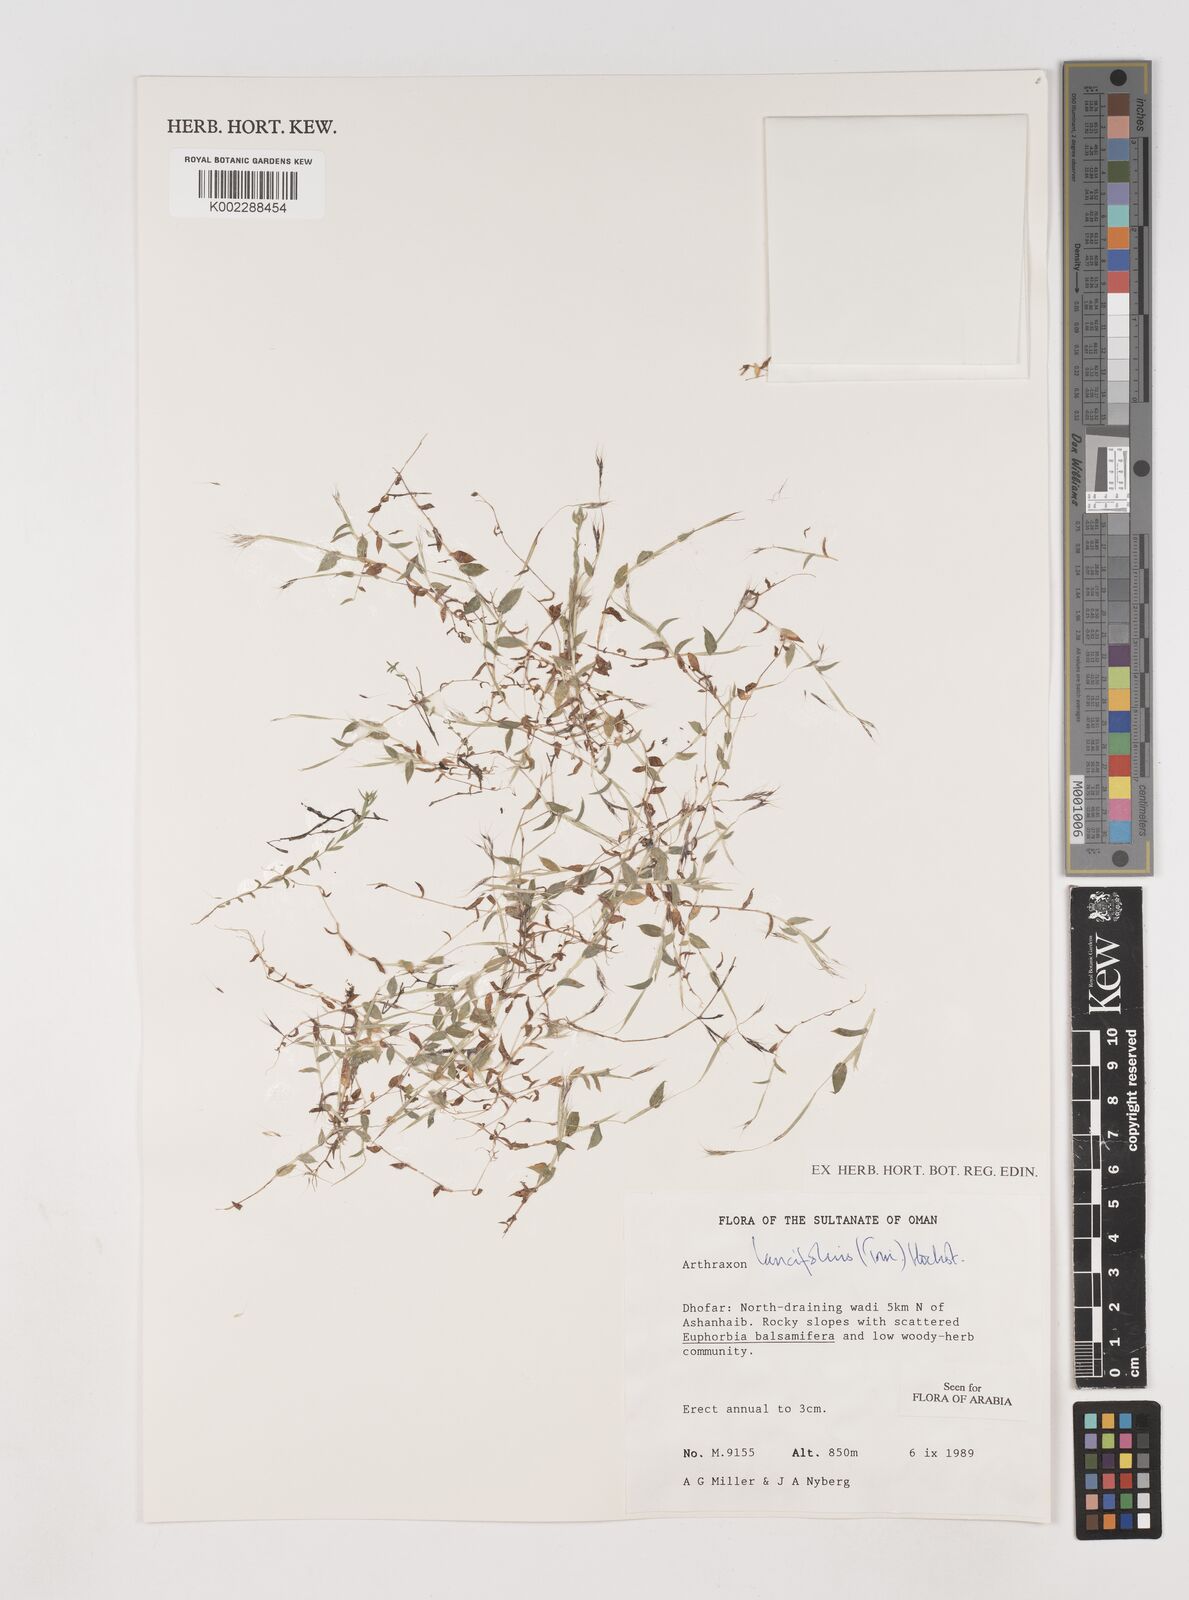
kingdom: Plantae
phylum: Tracheophyta
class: Liliopsida
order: Poales
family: Poaceae
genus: Arthraxon
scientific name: Arthraxon lancifolius
